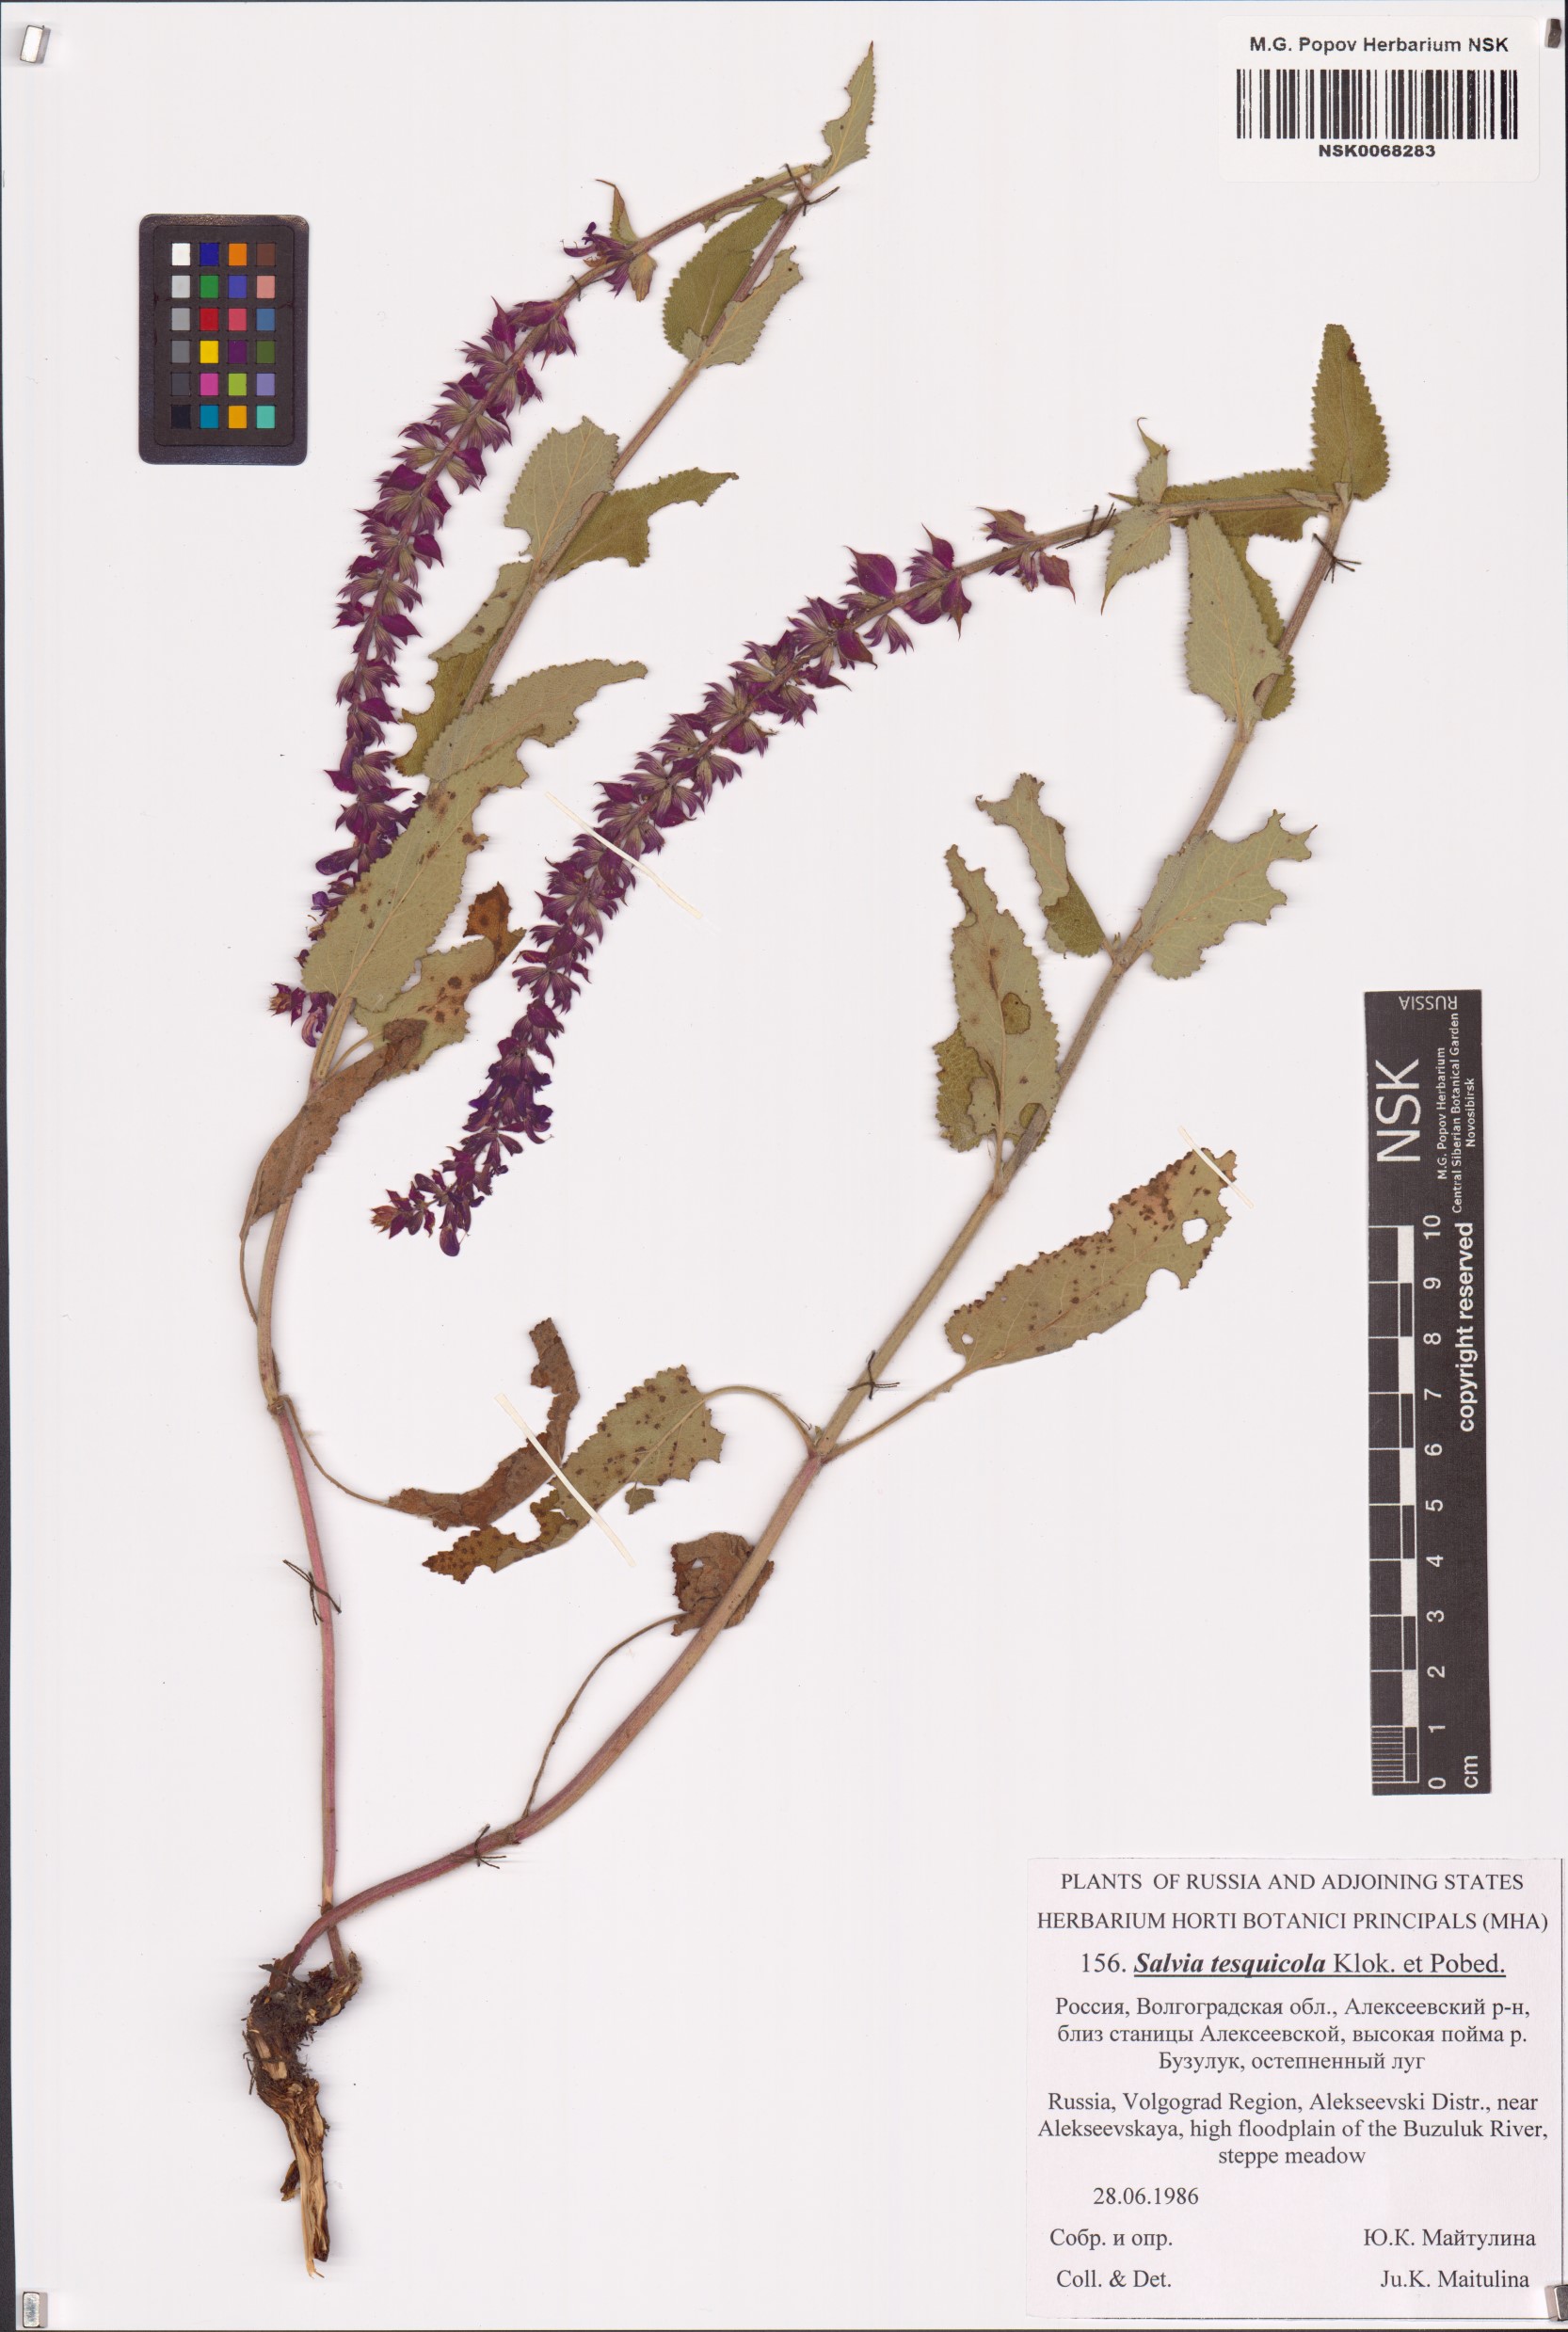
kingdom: Plantae
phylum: Tracheophyta
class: Magnoliopsida
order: Lamiales
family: Lamiaceae
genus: Salvia
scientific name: Salvia nemorosa
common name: Balkan clary
